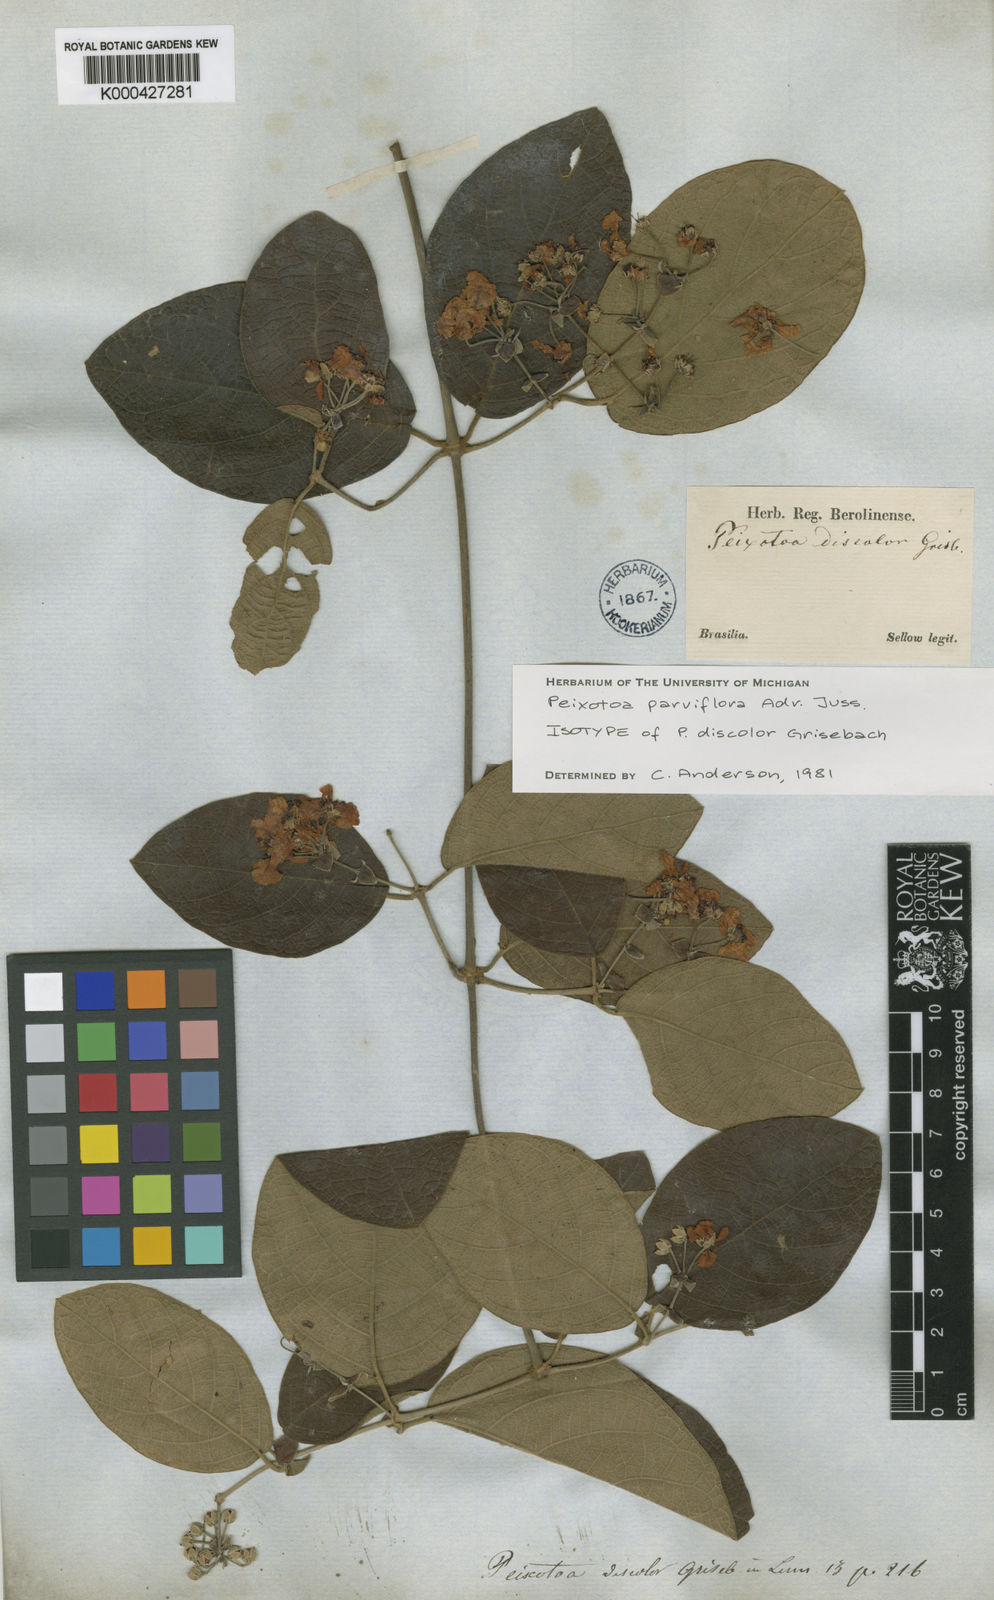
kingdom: Plantae
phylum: Tracheophyta
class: Magnoliopsida
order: Malpighiales
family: Malpighiaceae
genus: Peixotoa
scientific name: Peixotoa parviflora
